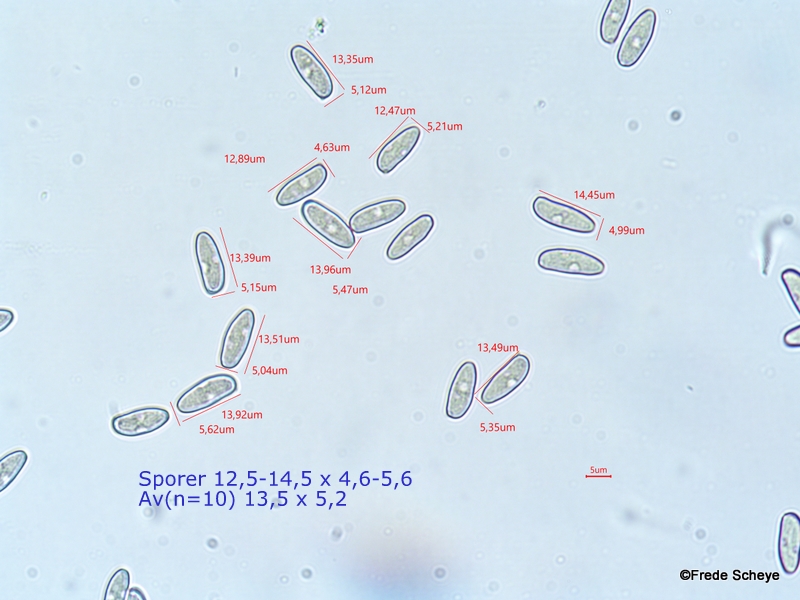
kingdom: Fungi
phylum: Basidiomycota
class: Agaricomycetes
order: Agaricales
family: Inocybaceae
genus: Inocybe
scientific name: Inocybe lacera
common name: laset trævlhat
